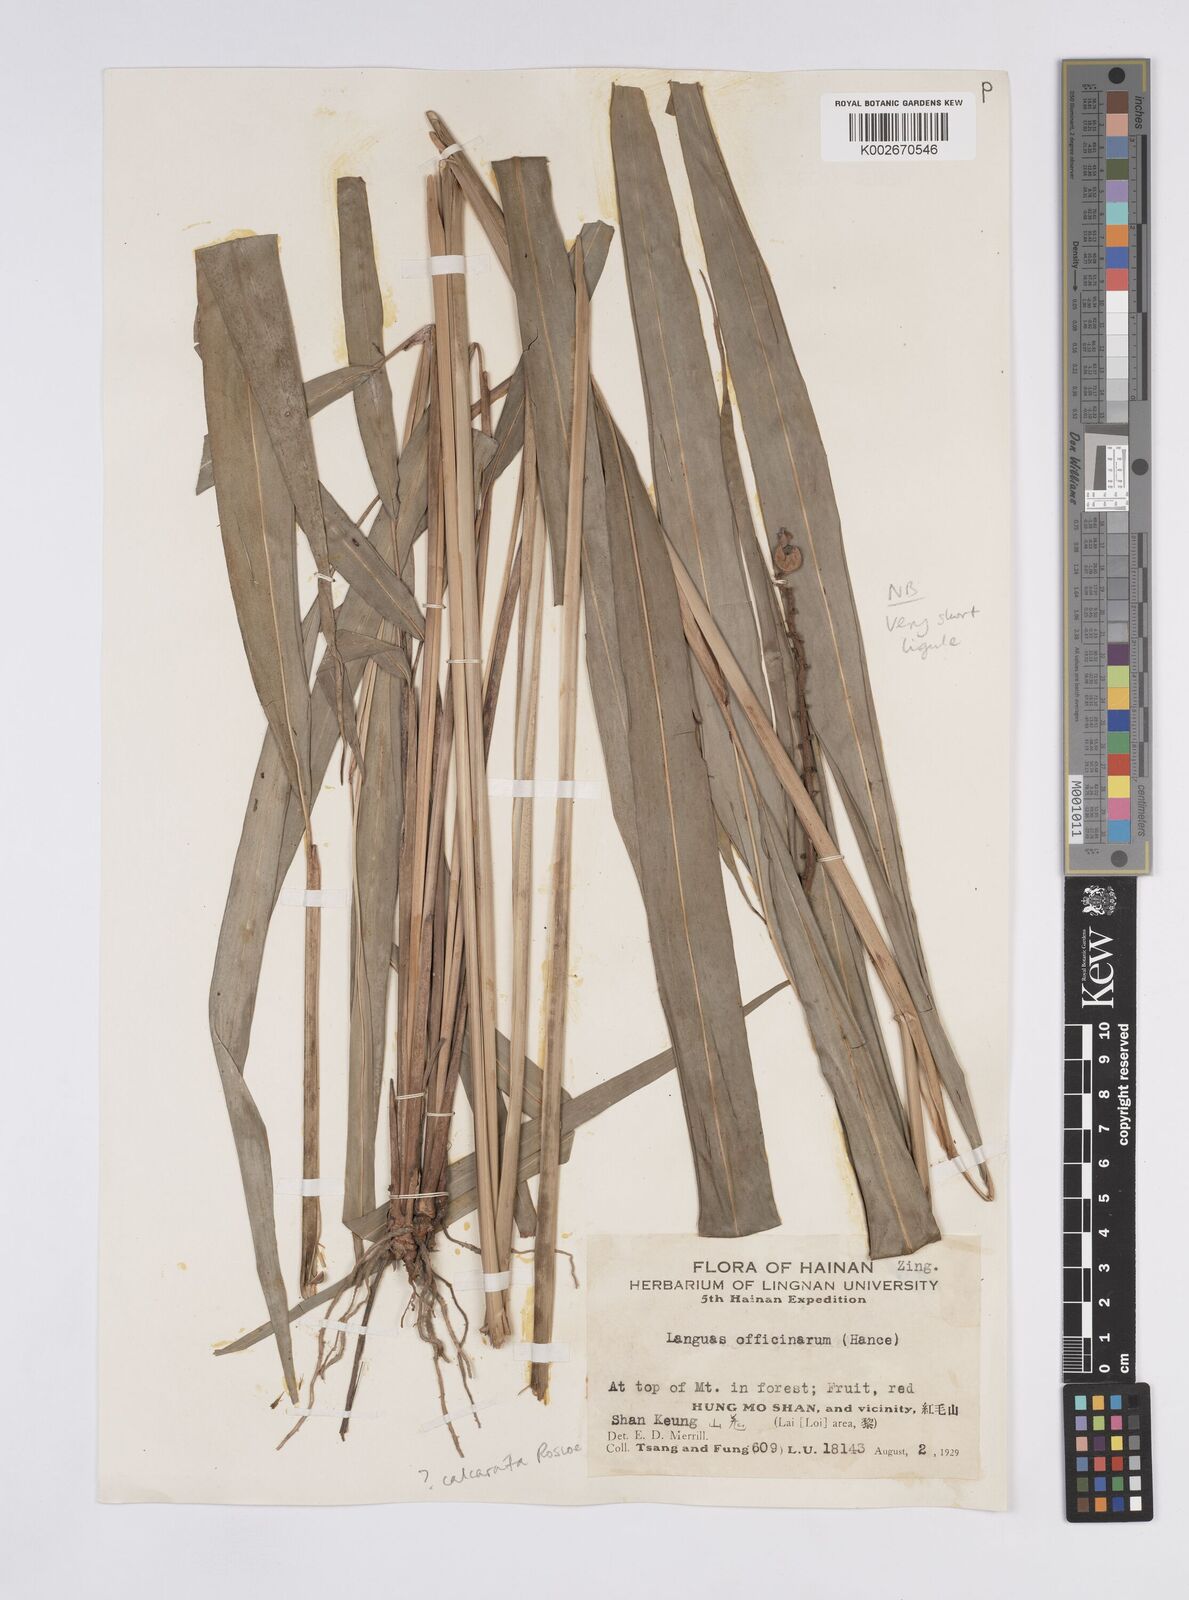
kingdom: Plantae
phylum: Tracheophyta
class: Liliopsida
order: Zingiberales
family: Zingiberaceae
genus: Alpinia
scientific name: Alpinia calcarata
